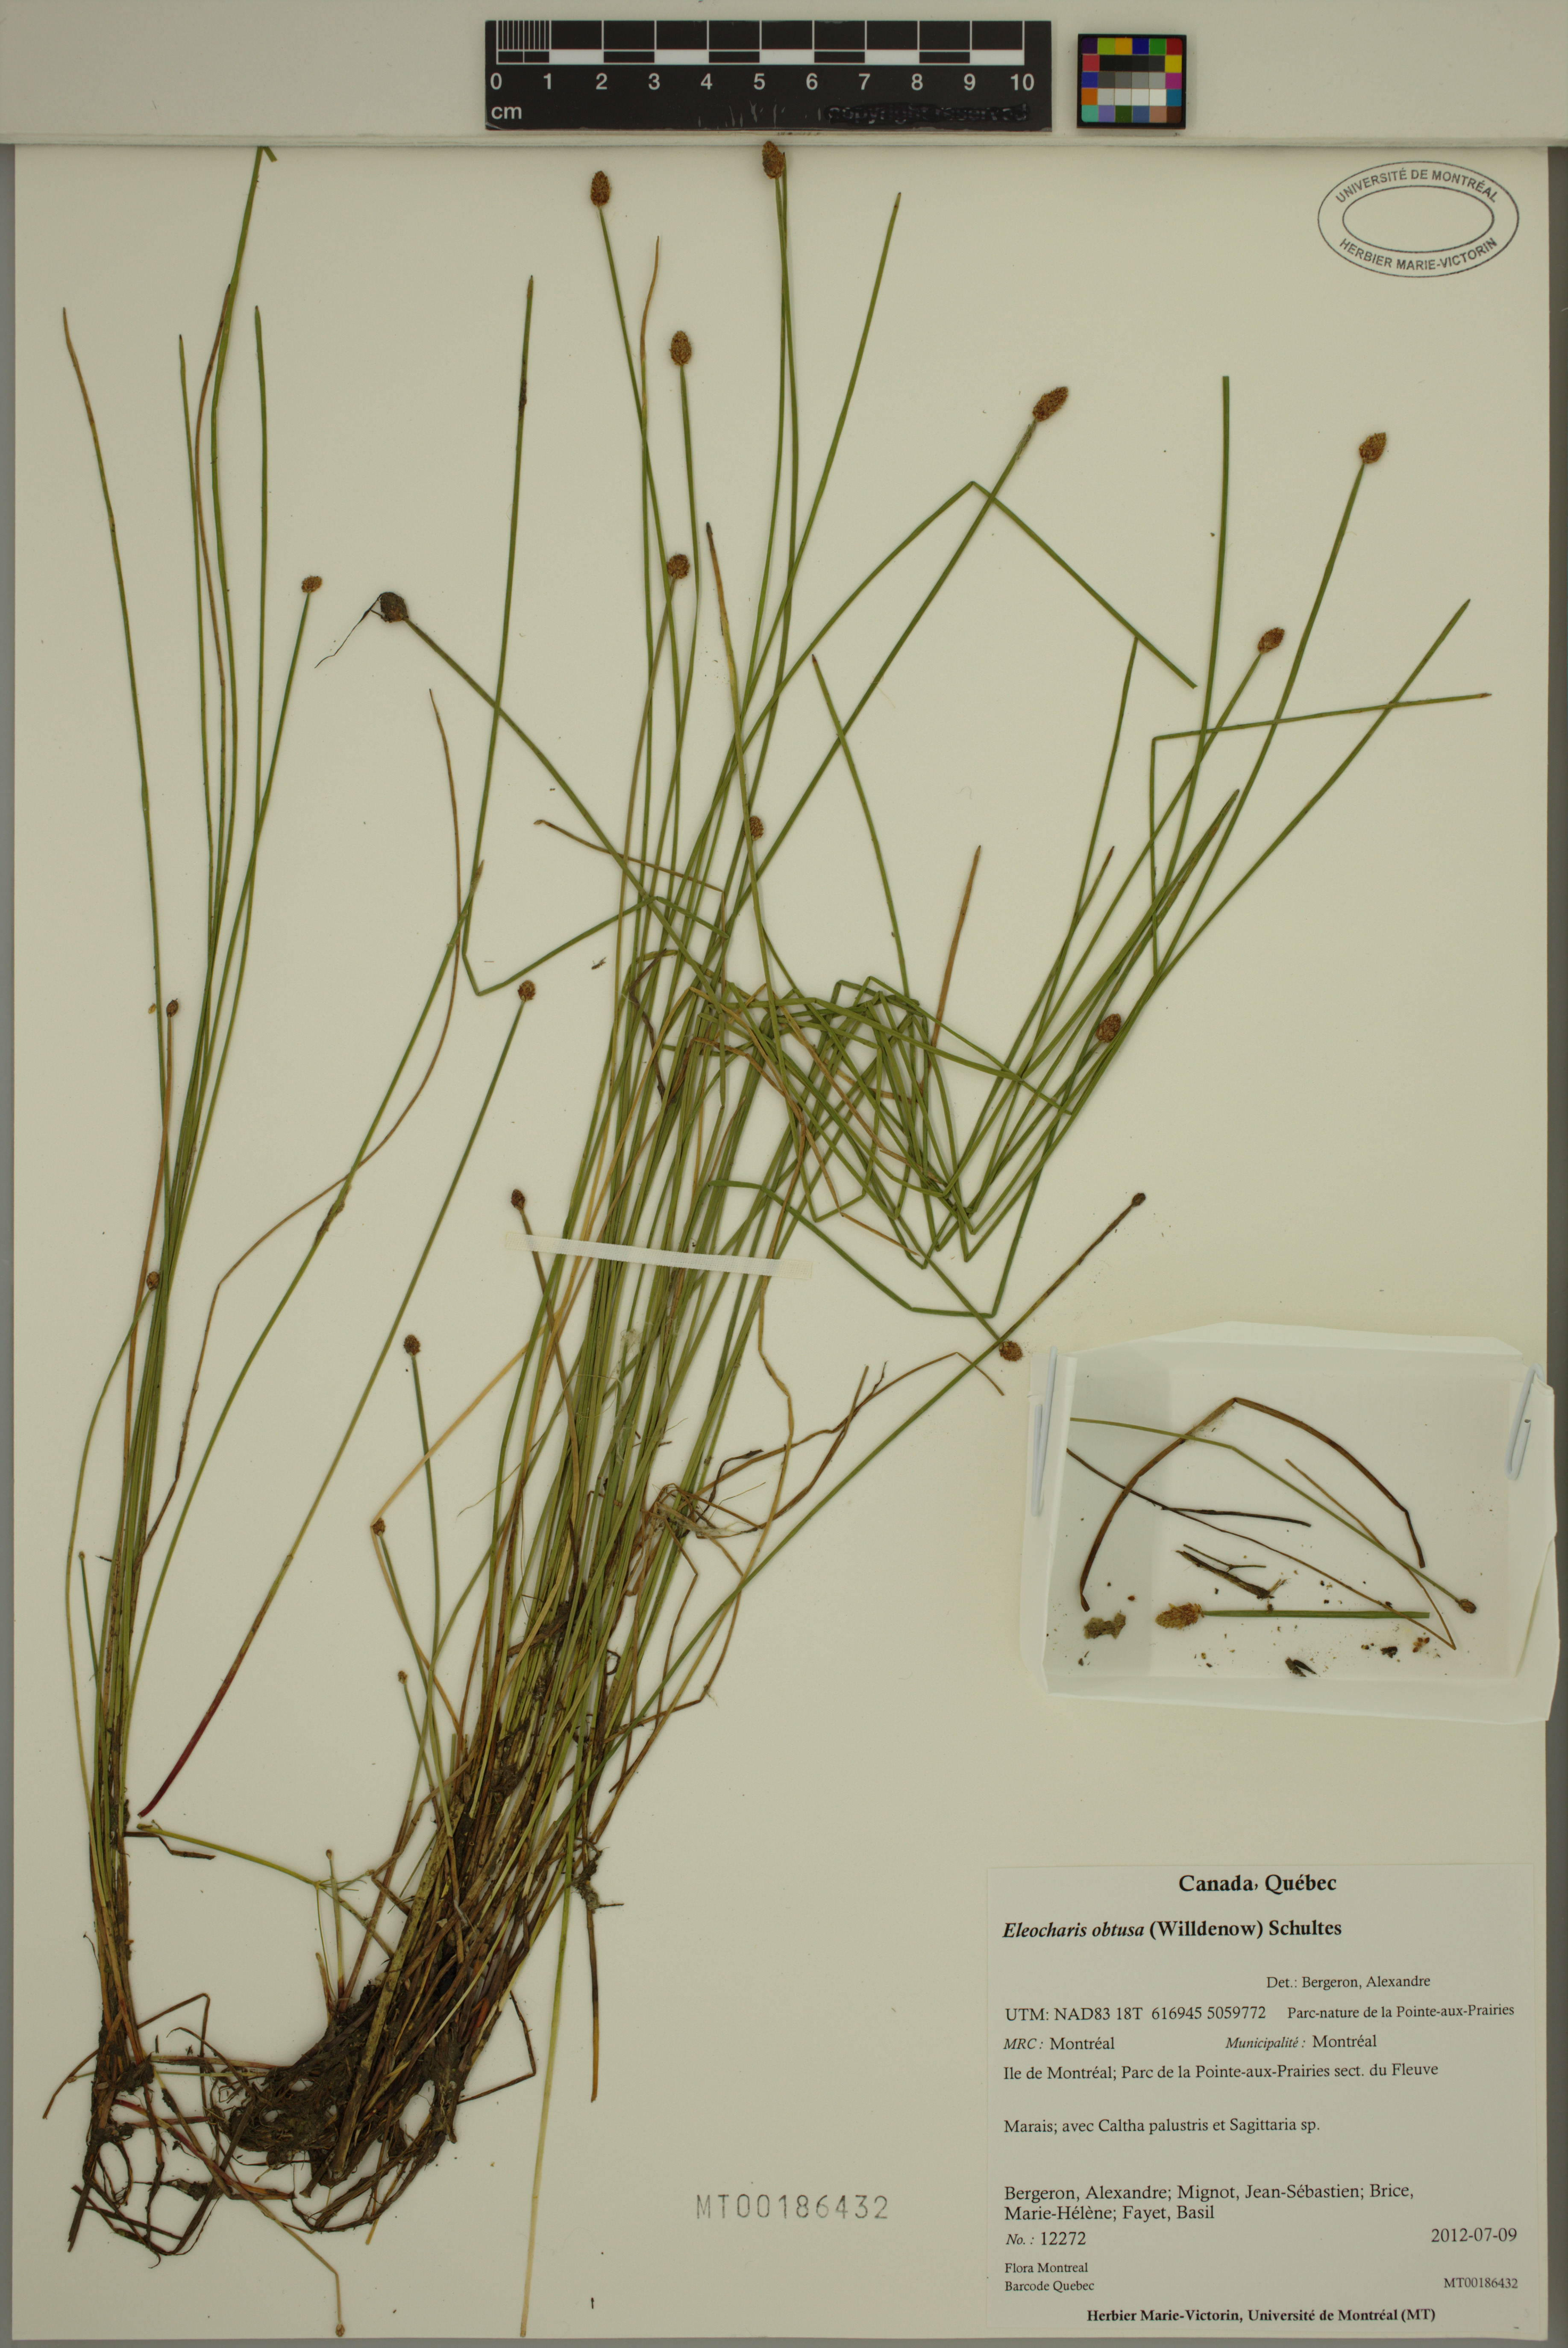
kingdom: Plantae
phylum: Tracheophyta
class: Liliopsida
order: Poales
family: Cyperaceae
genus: Eleocharis
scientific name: Eleocharis obtusa
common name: Blunt spikerush
